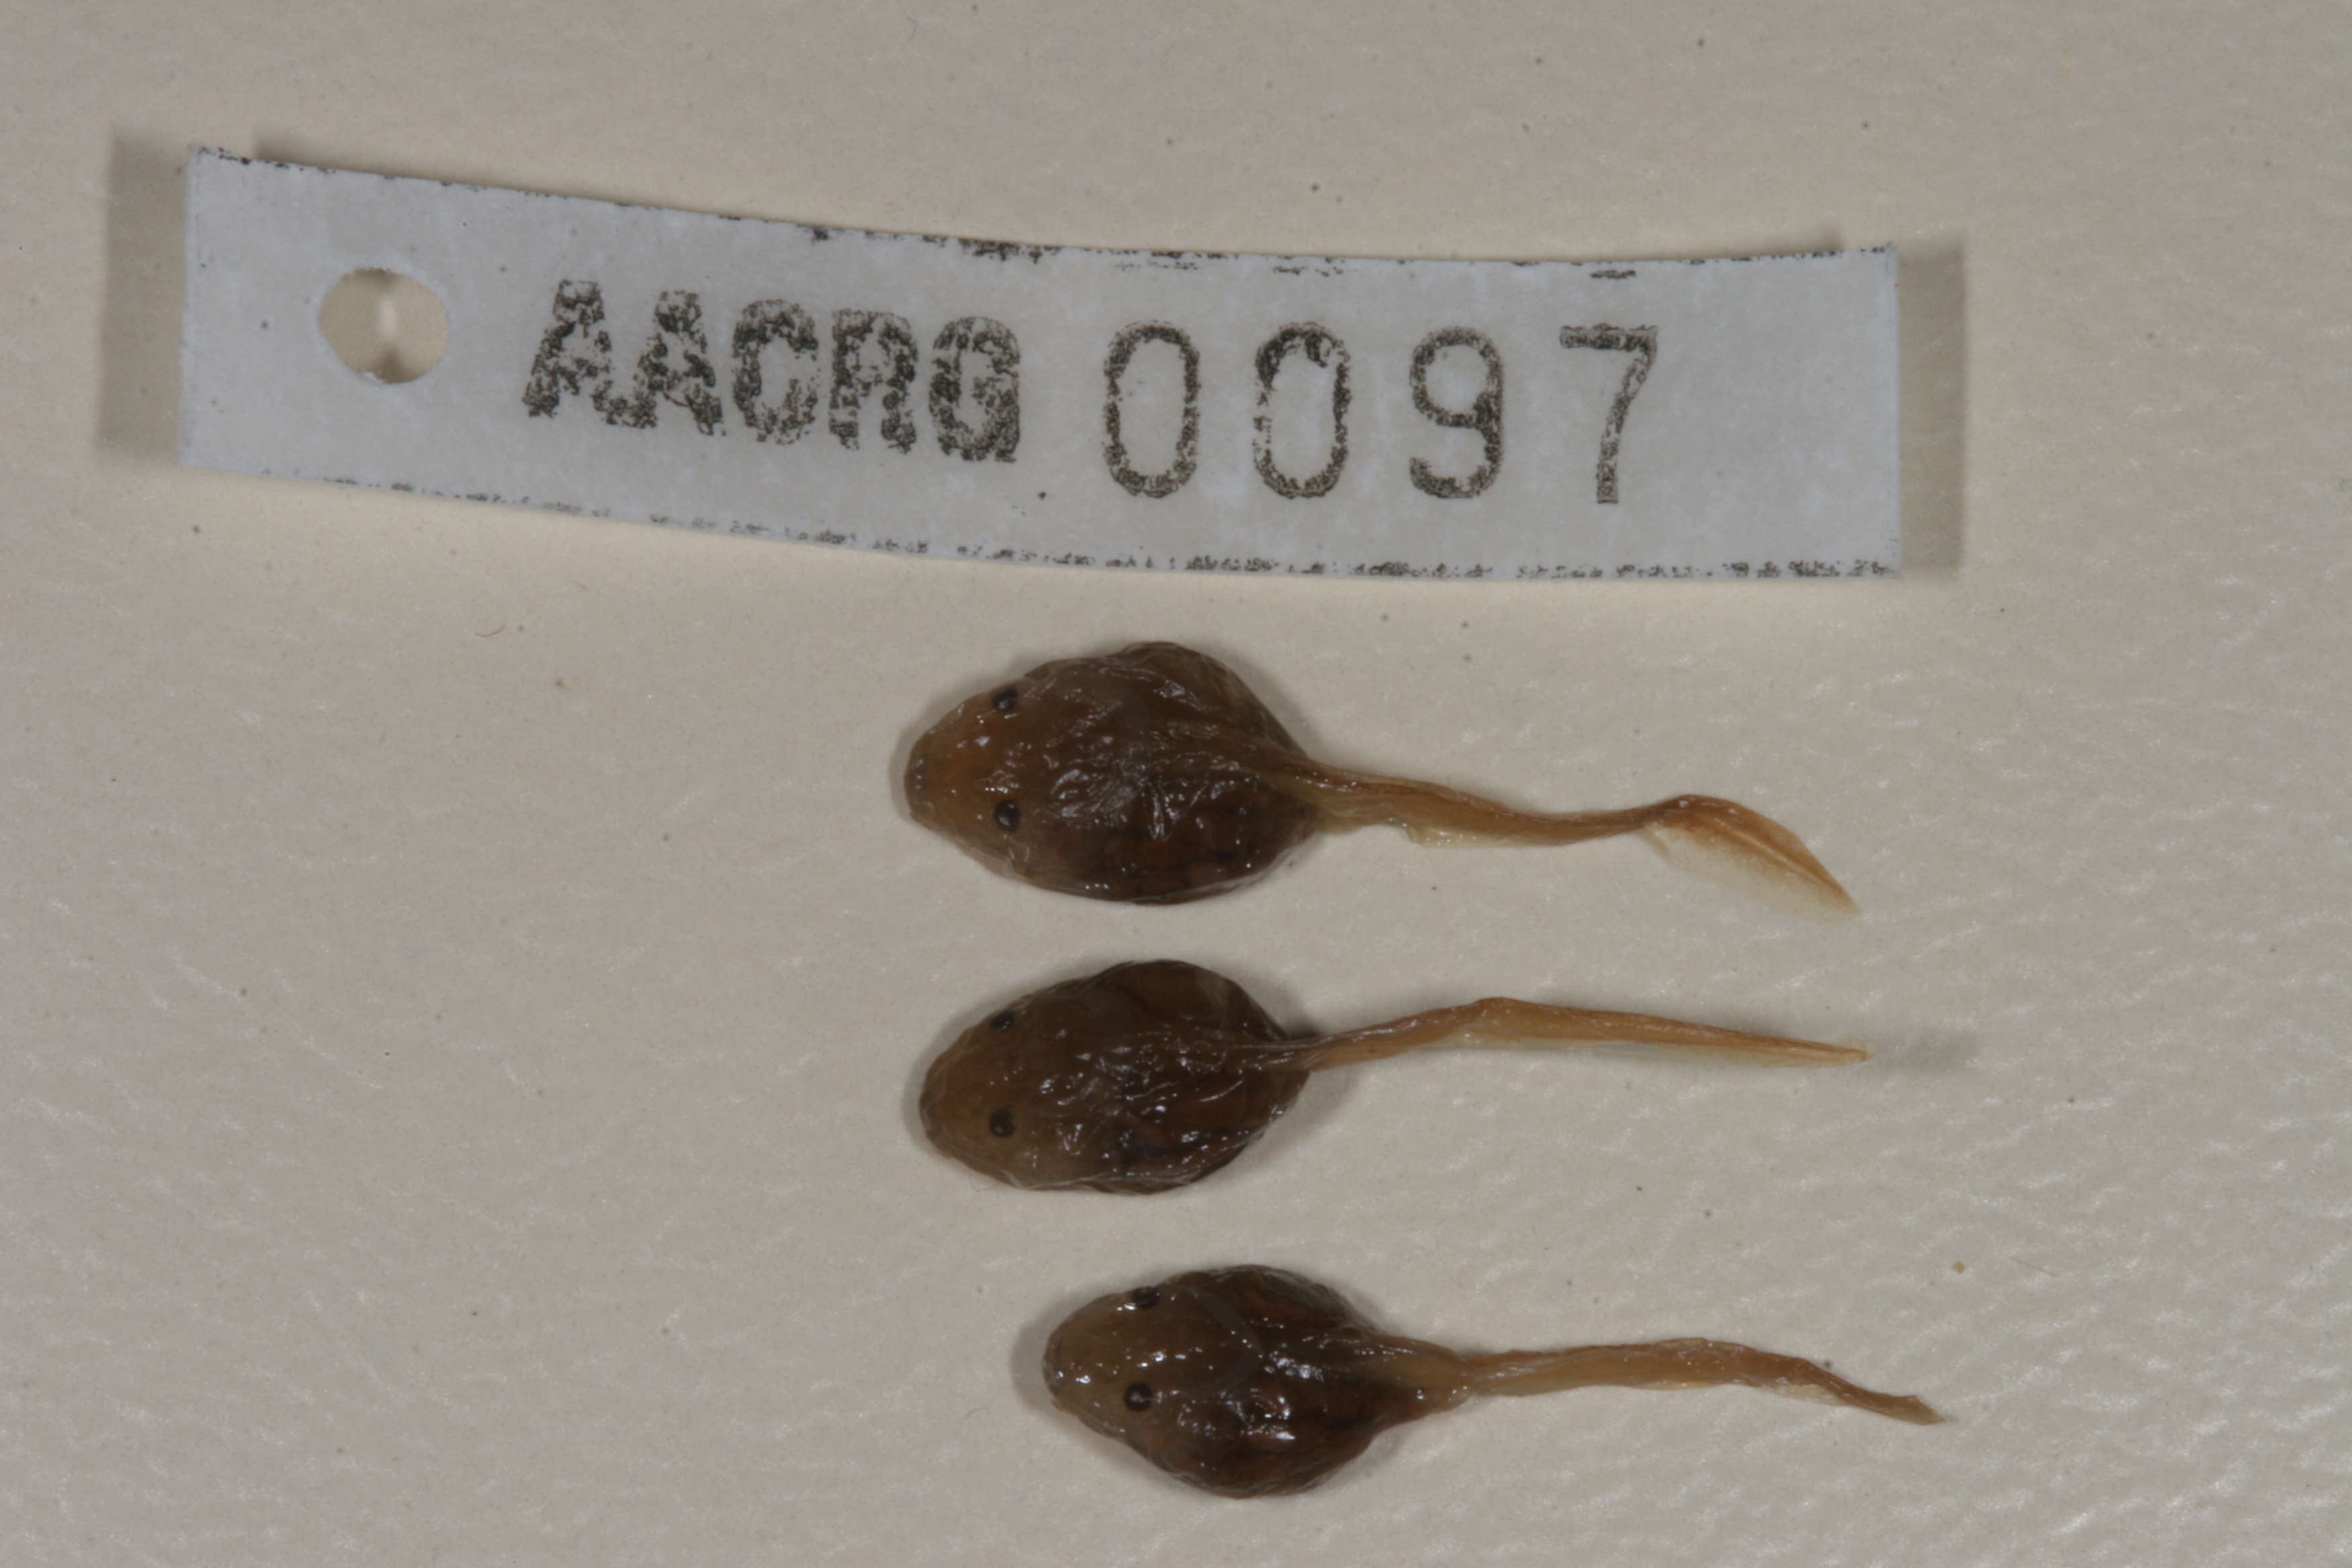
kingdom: Animalia
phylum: Chordata
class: Amphibia
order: Anura
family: Bufonidae
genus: Schismaderma
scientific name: Schismaderma carens
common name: African split-skin toad
